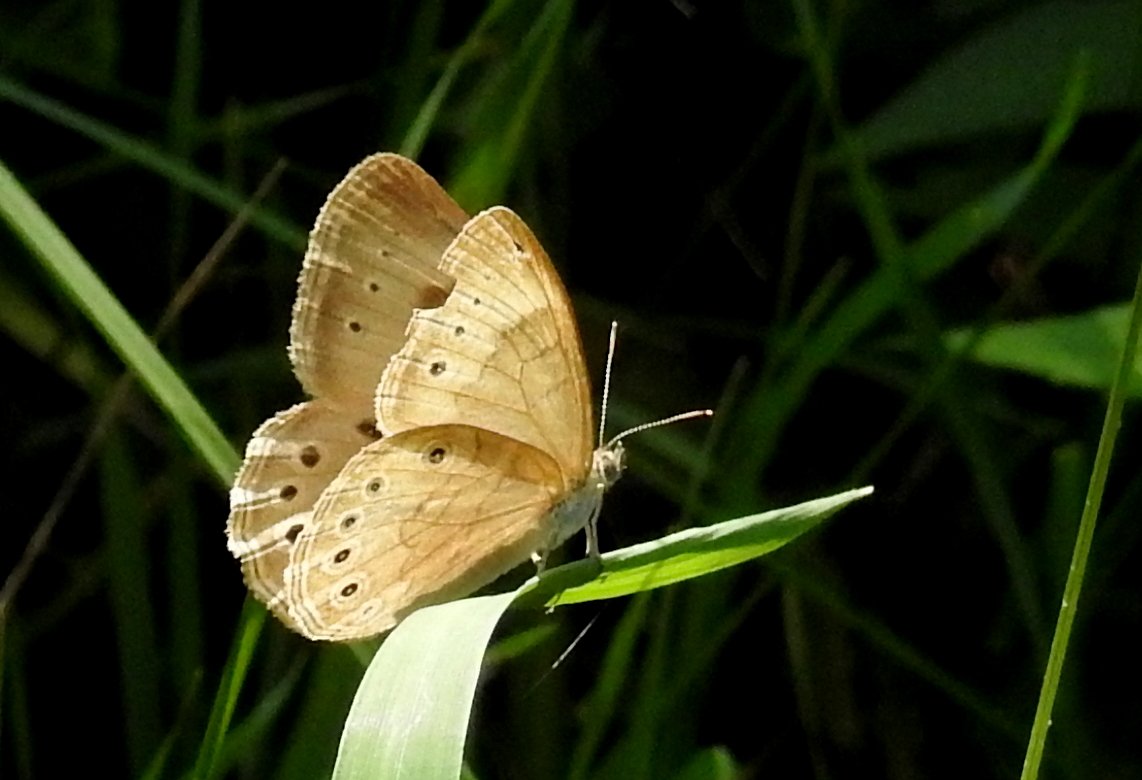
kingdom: Animalia
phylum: Arthropoda
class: Insecta
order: Lepidoptera
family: Nymphalidae
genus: Lethe
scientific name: Lethe eurydice
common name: Eyed Brown
